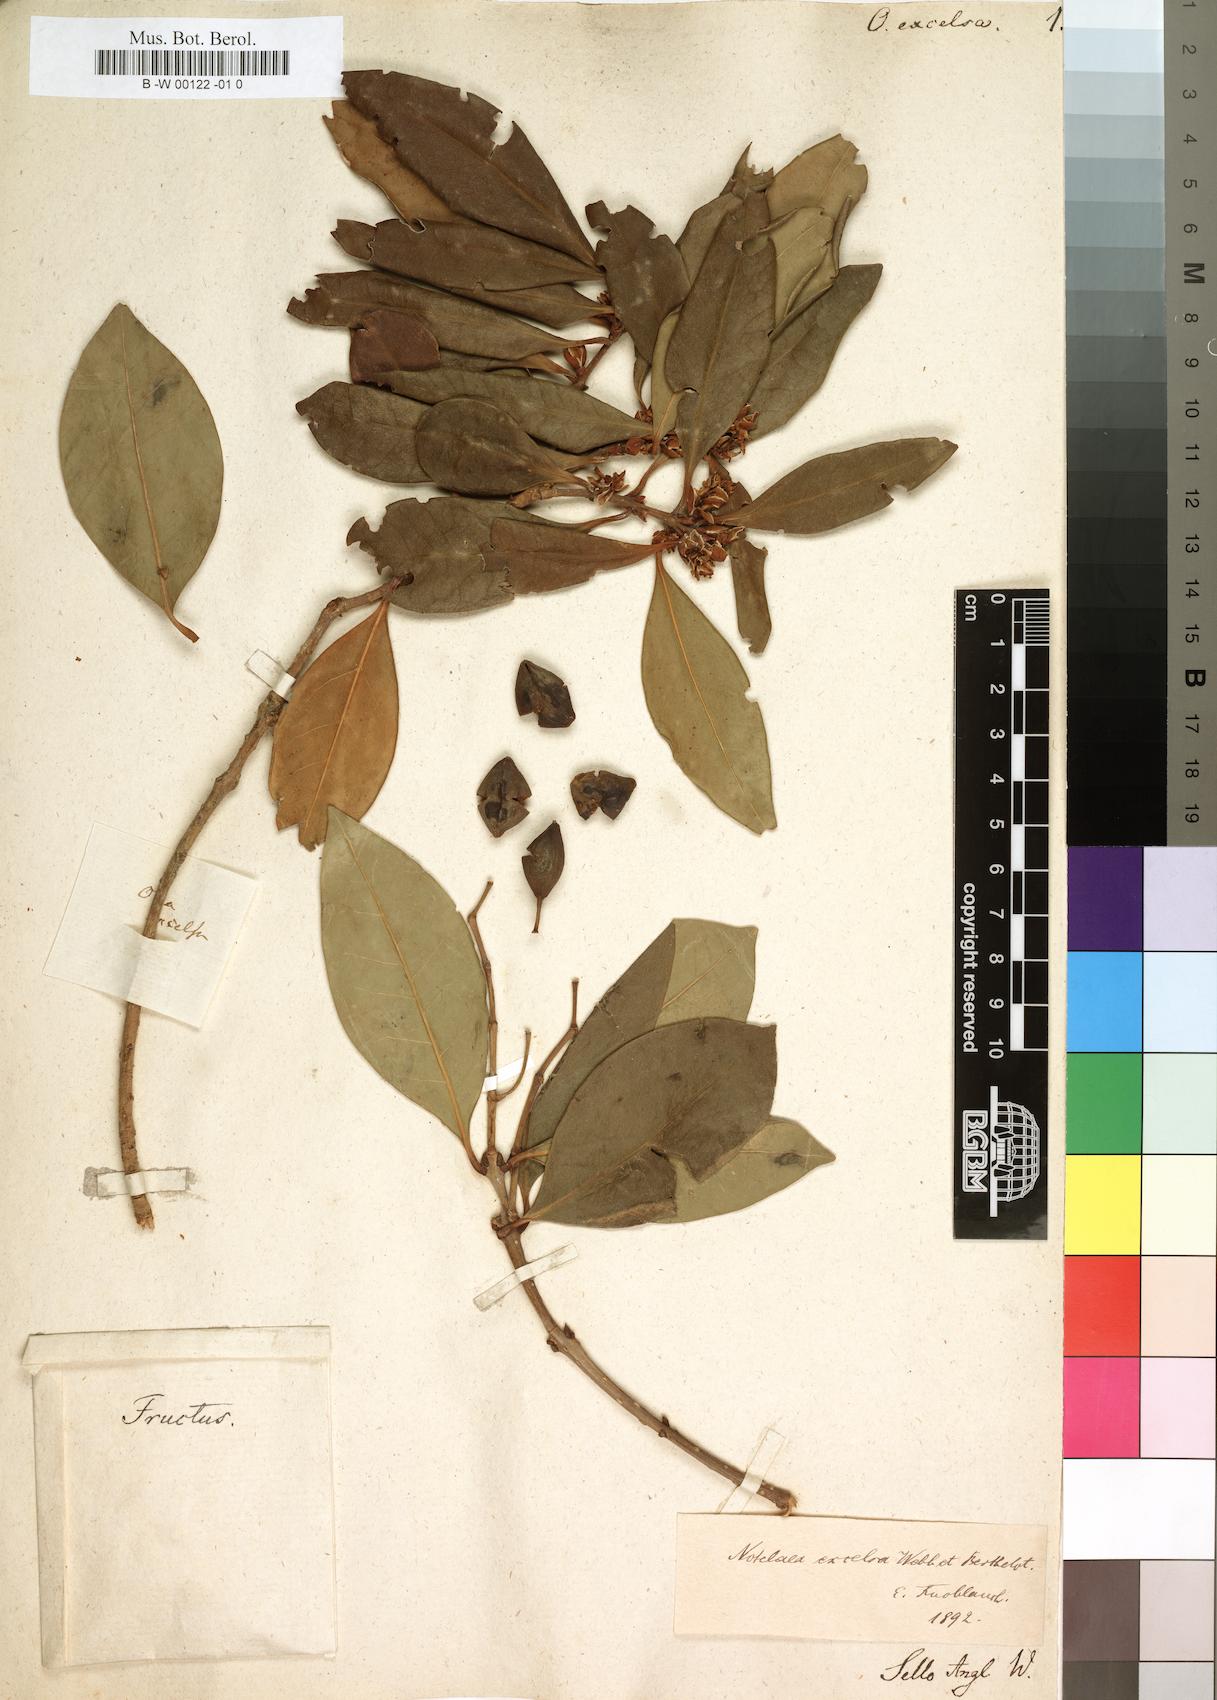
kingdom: Plantae
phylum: Tracheophyta
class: Magnoliopsida
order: Lamiales
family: Oleaceae
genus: Picconia
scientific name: Picconia excelsa
